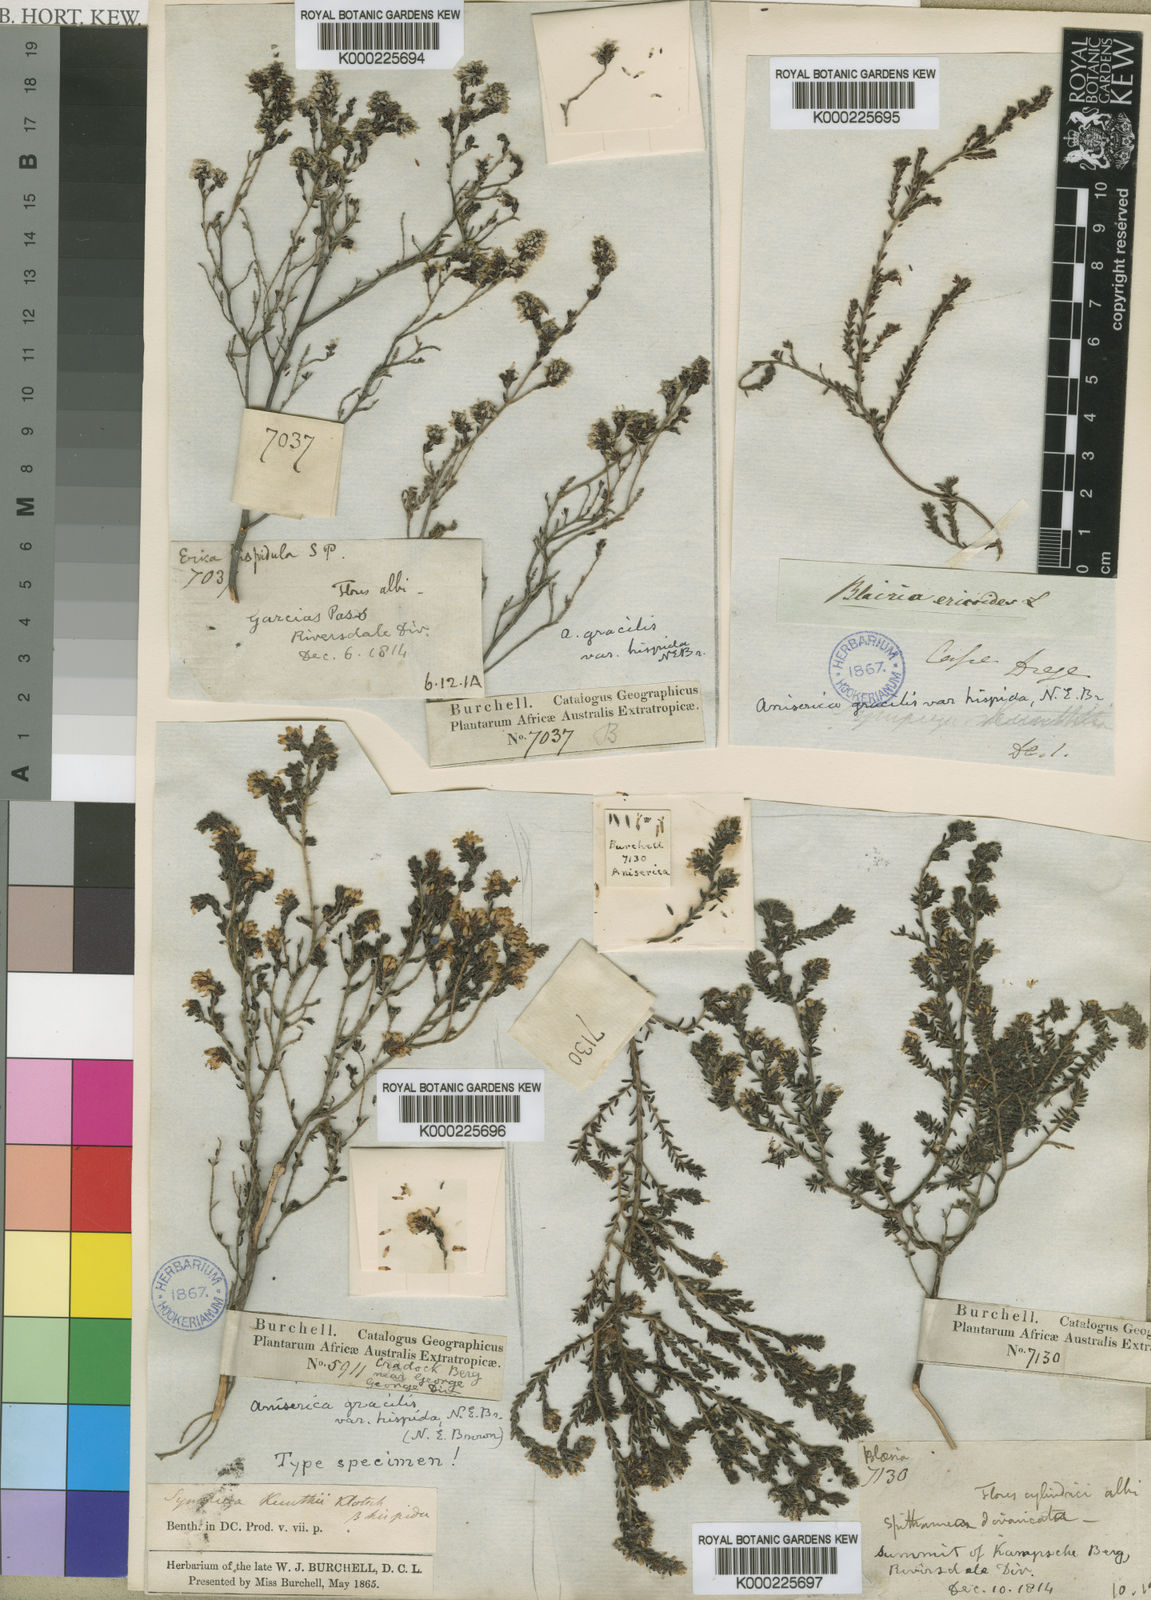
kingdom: Plantae
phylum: Tracheophyta
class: Magnoliopsida
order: Ericales
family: Ericaceae
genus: Erica
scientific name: Erica benthamiana
